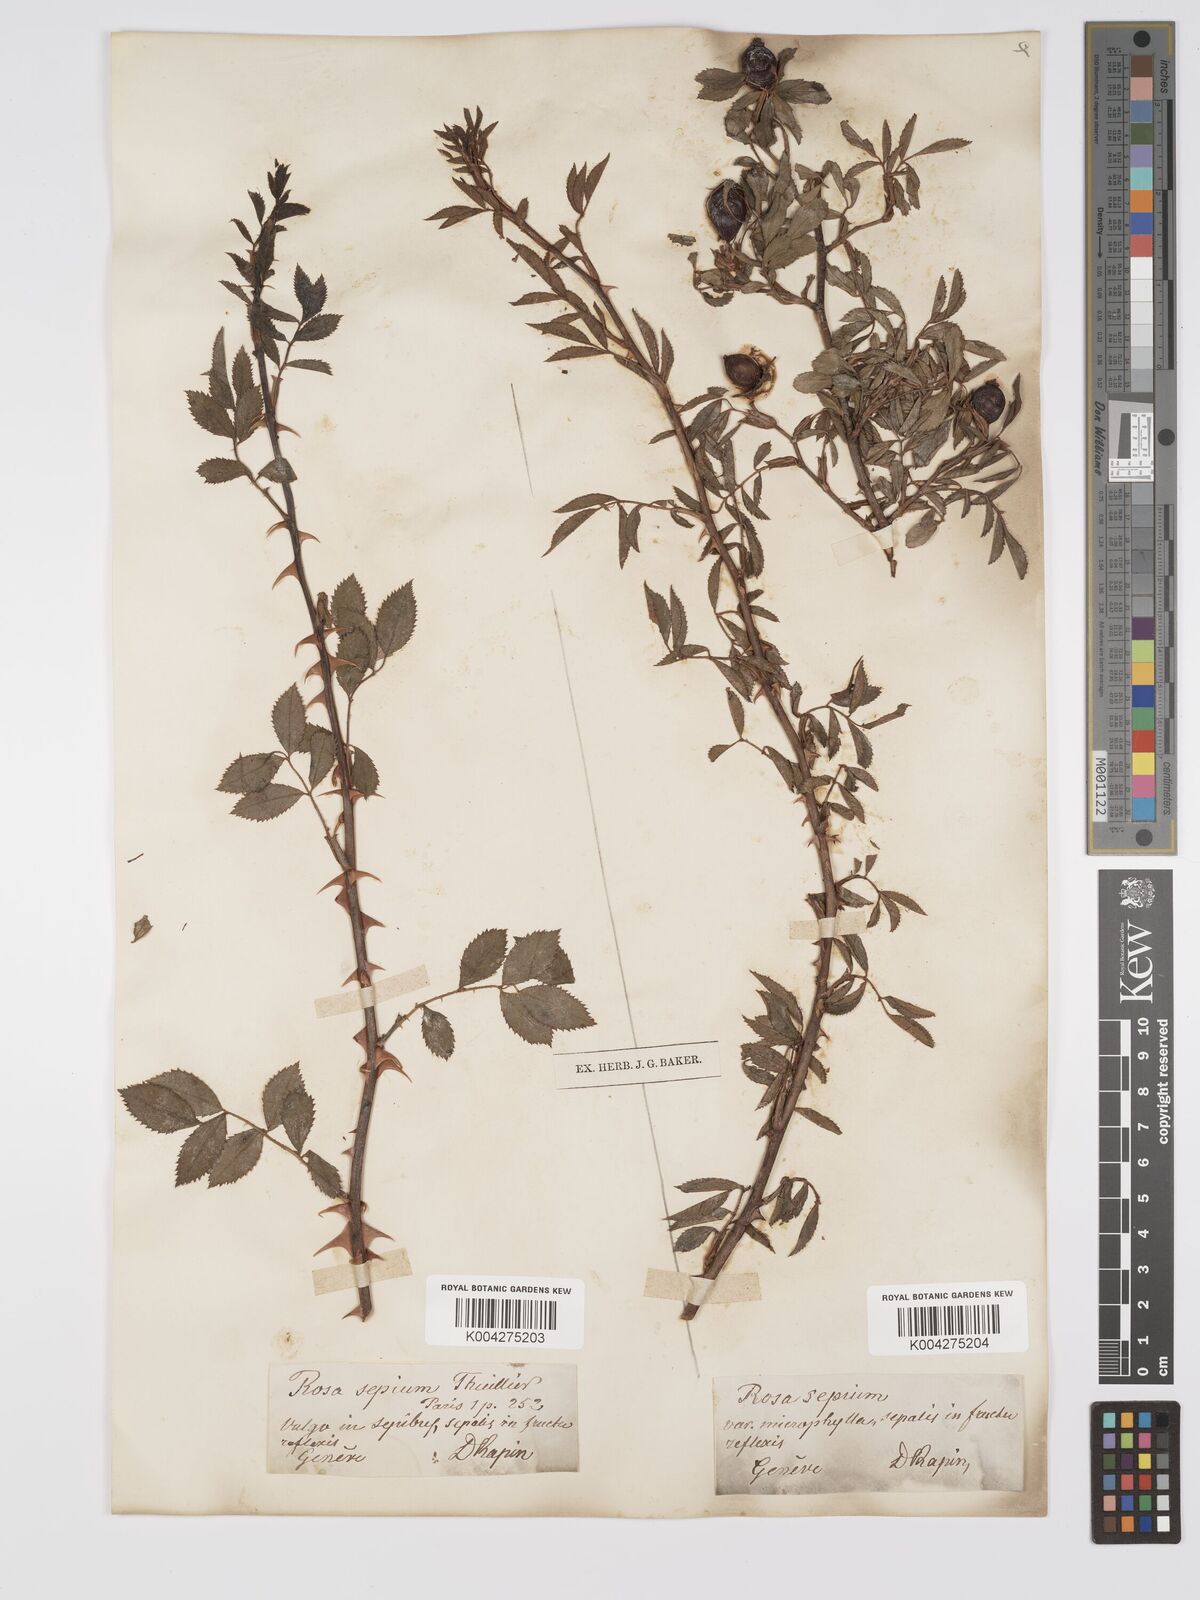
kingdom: Plantae
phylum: Tracheophyta
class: Magnoliopsida
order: Rosales
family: Rosaceae
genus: Rosa
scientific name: Rosa
